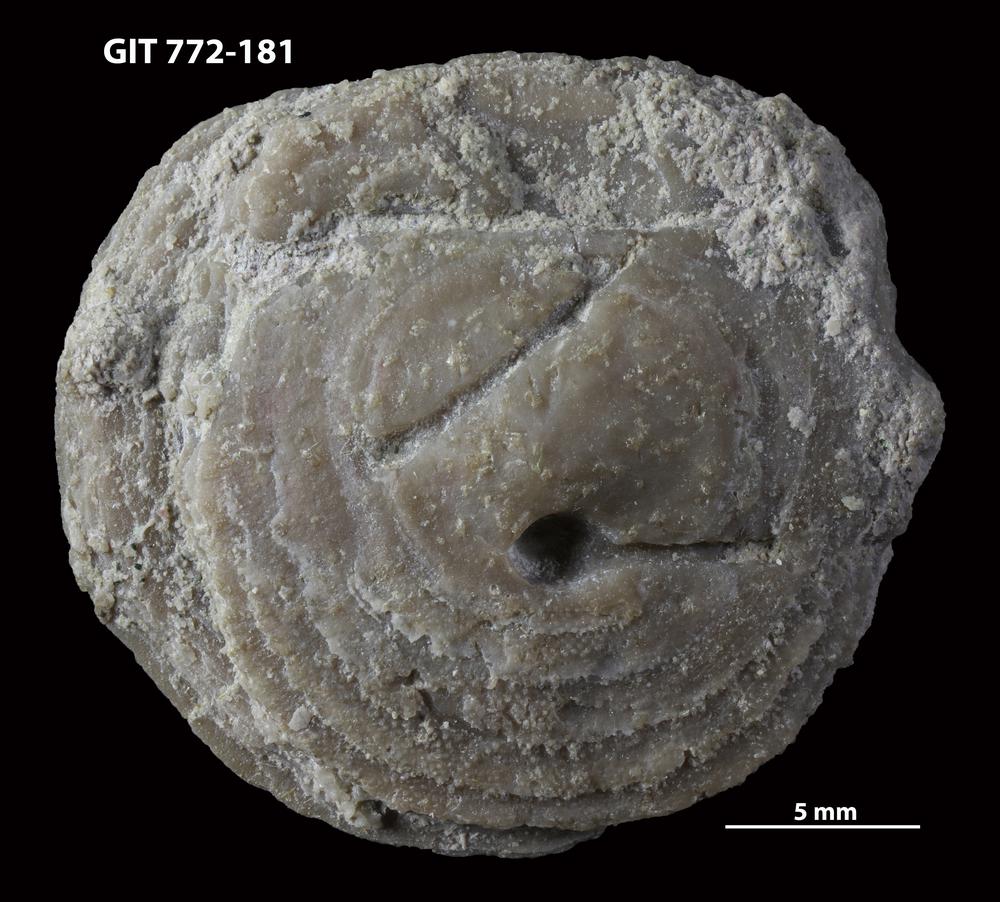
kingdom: Animalia
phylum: Brachiopoda
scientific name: Brachiopoda
